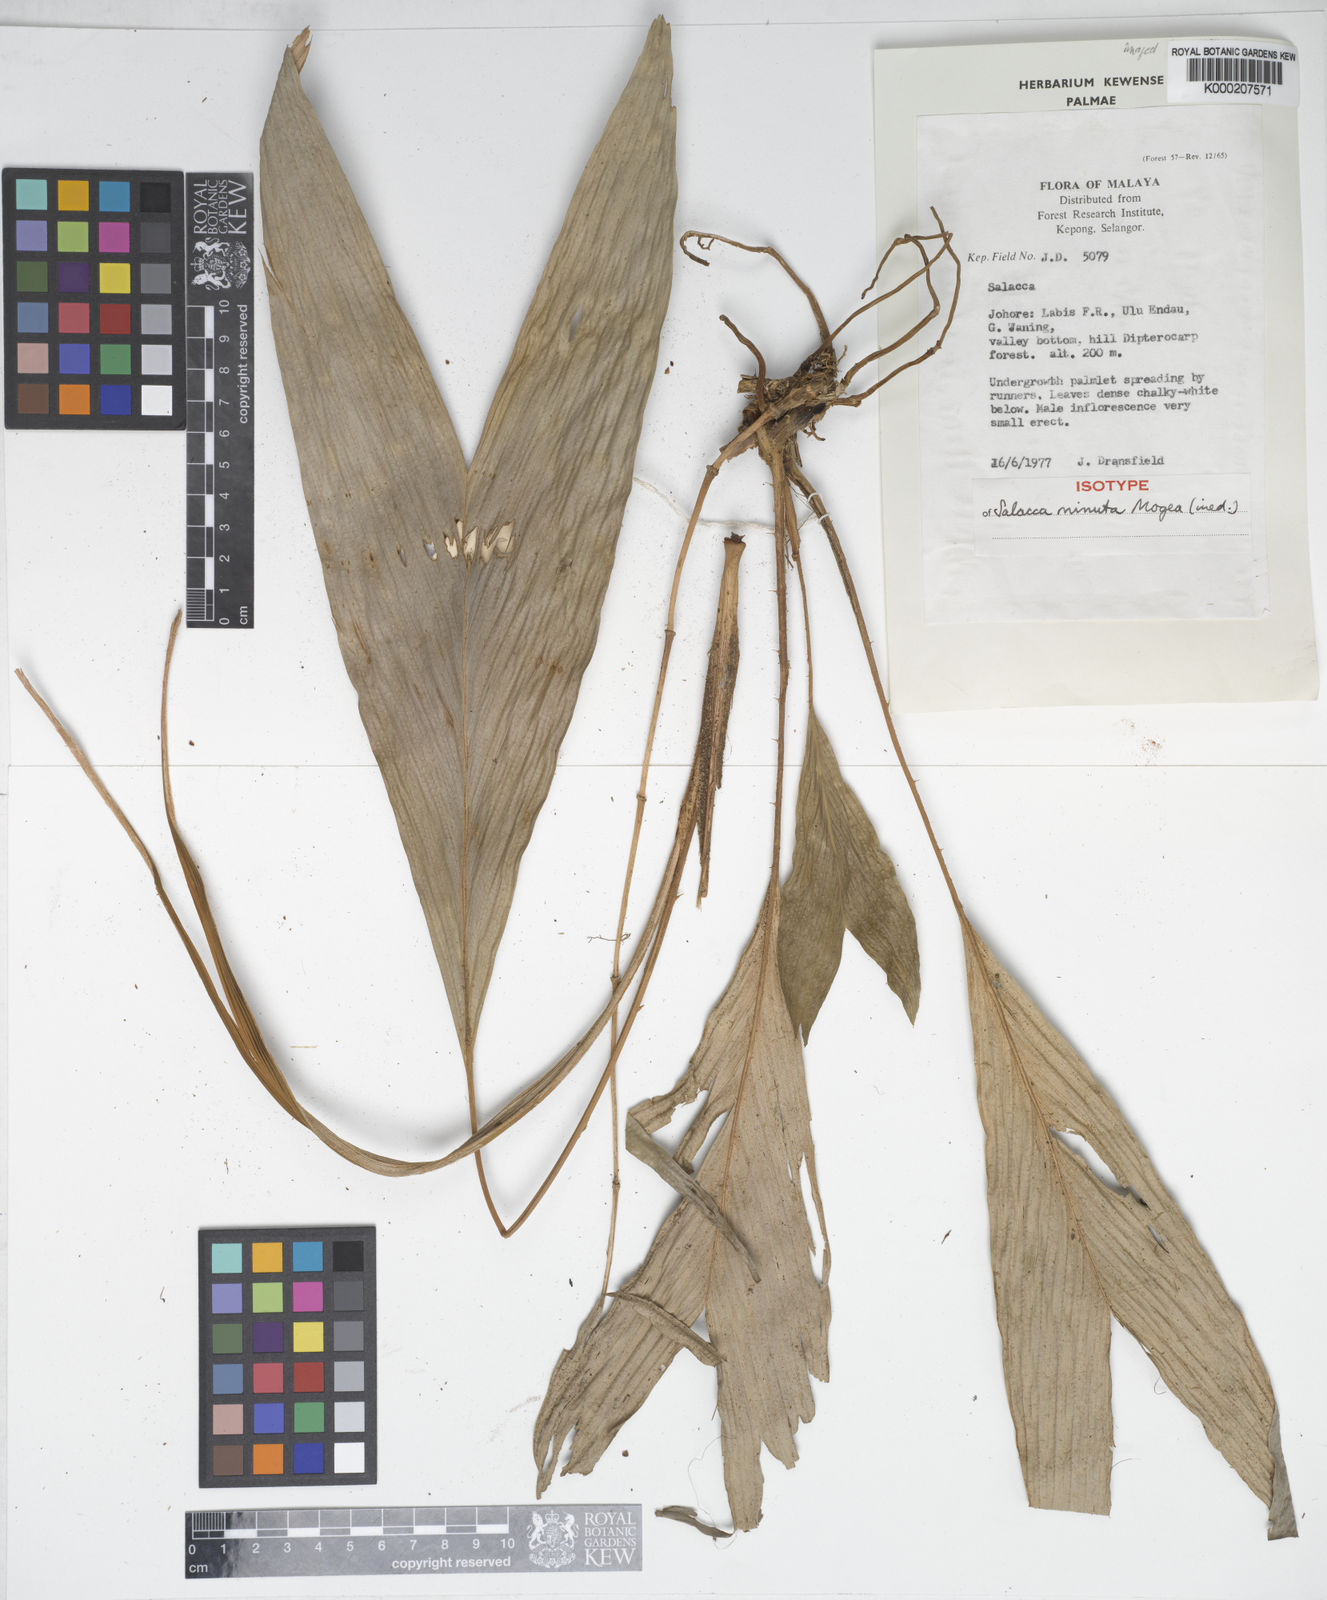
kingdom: Plantae
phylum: Tracheophyta
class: Liliopsida
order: Arecales
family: Arecaceae
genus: Salacca
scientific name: Salacca minuta
